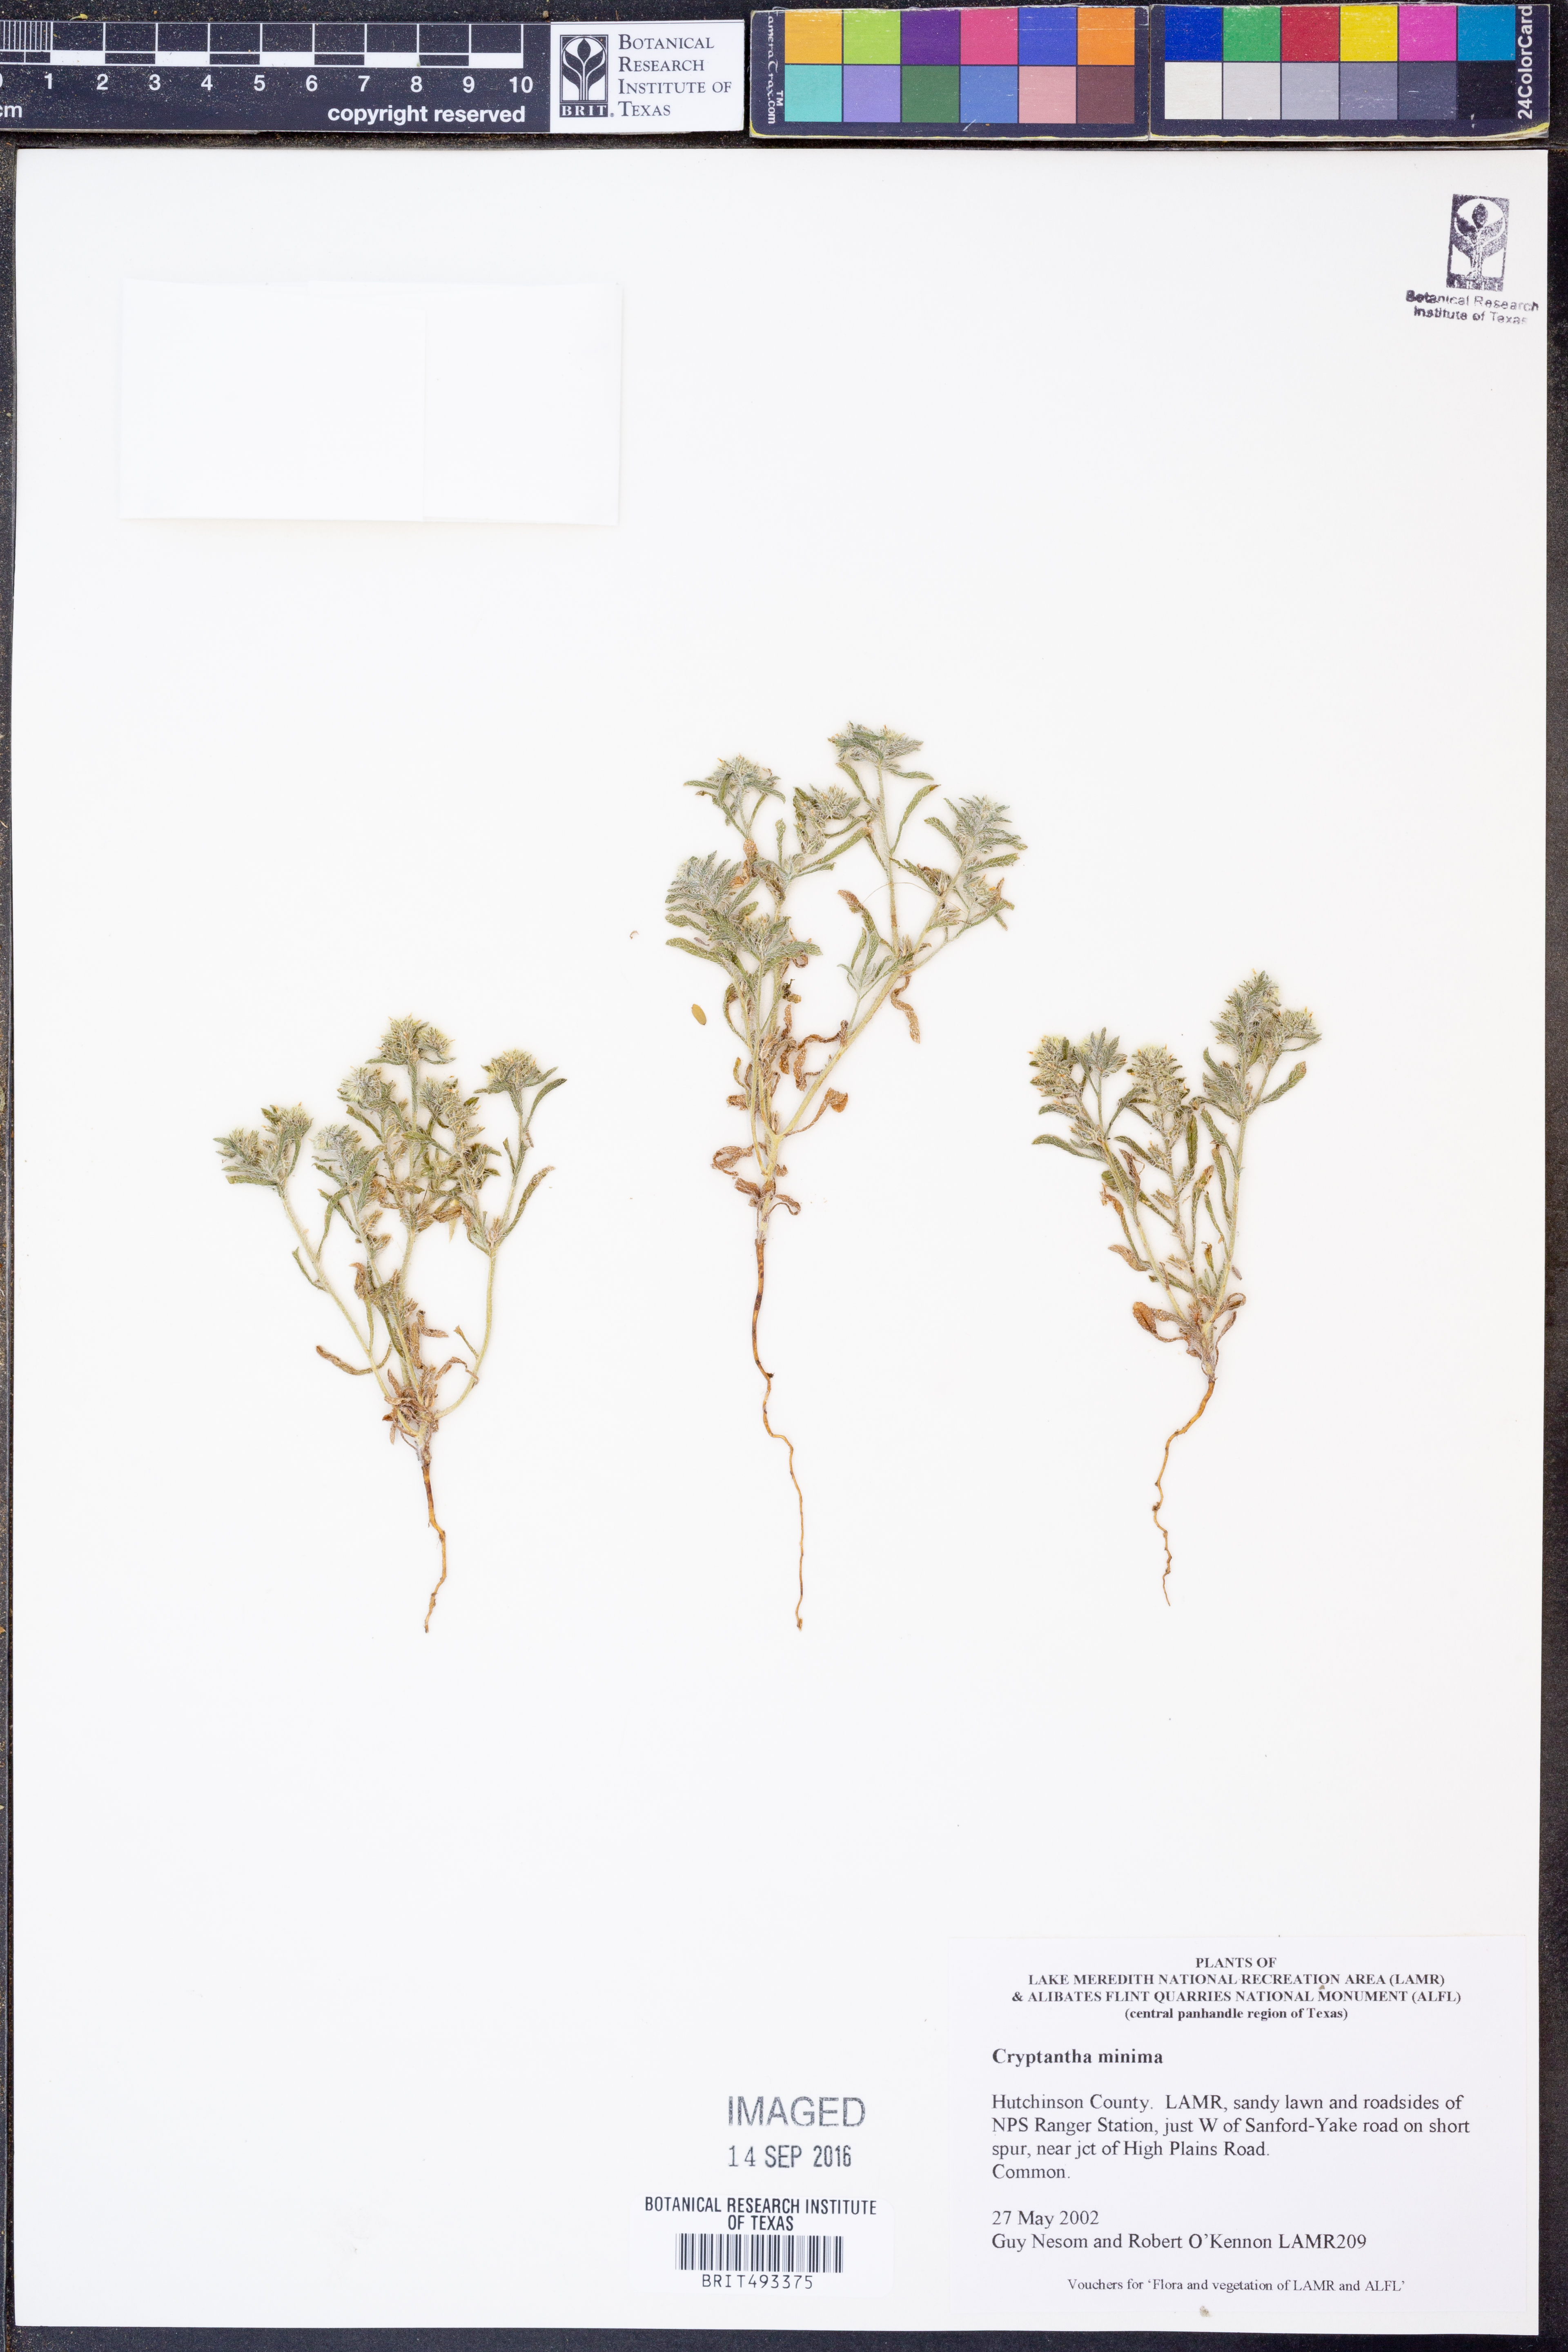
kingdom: Plantae
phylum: Tracheophyta
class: Magnoliopsida
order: Boraginales
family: Boraginaceae
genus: Cryptantha
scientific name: Cryptantha minima
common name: Little cat's-eye
